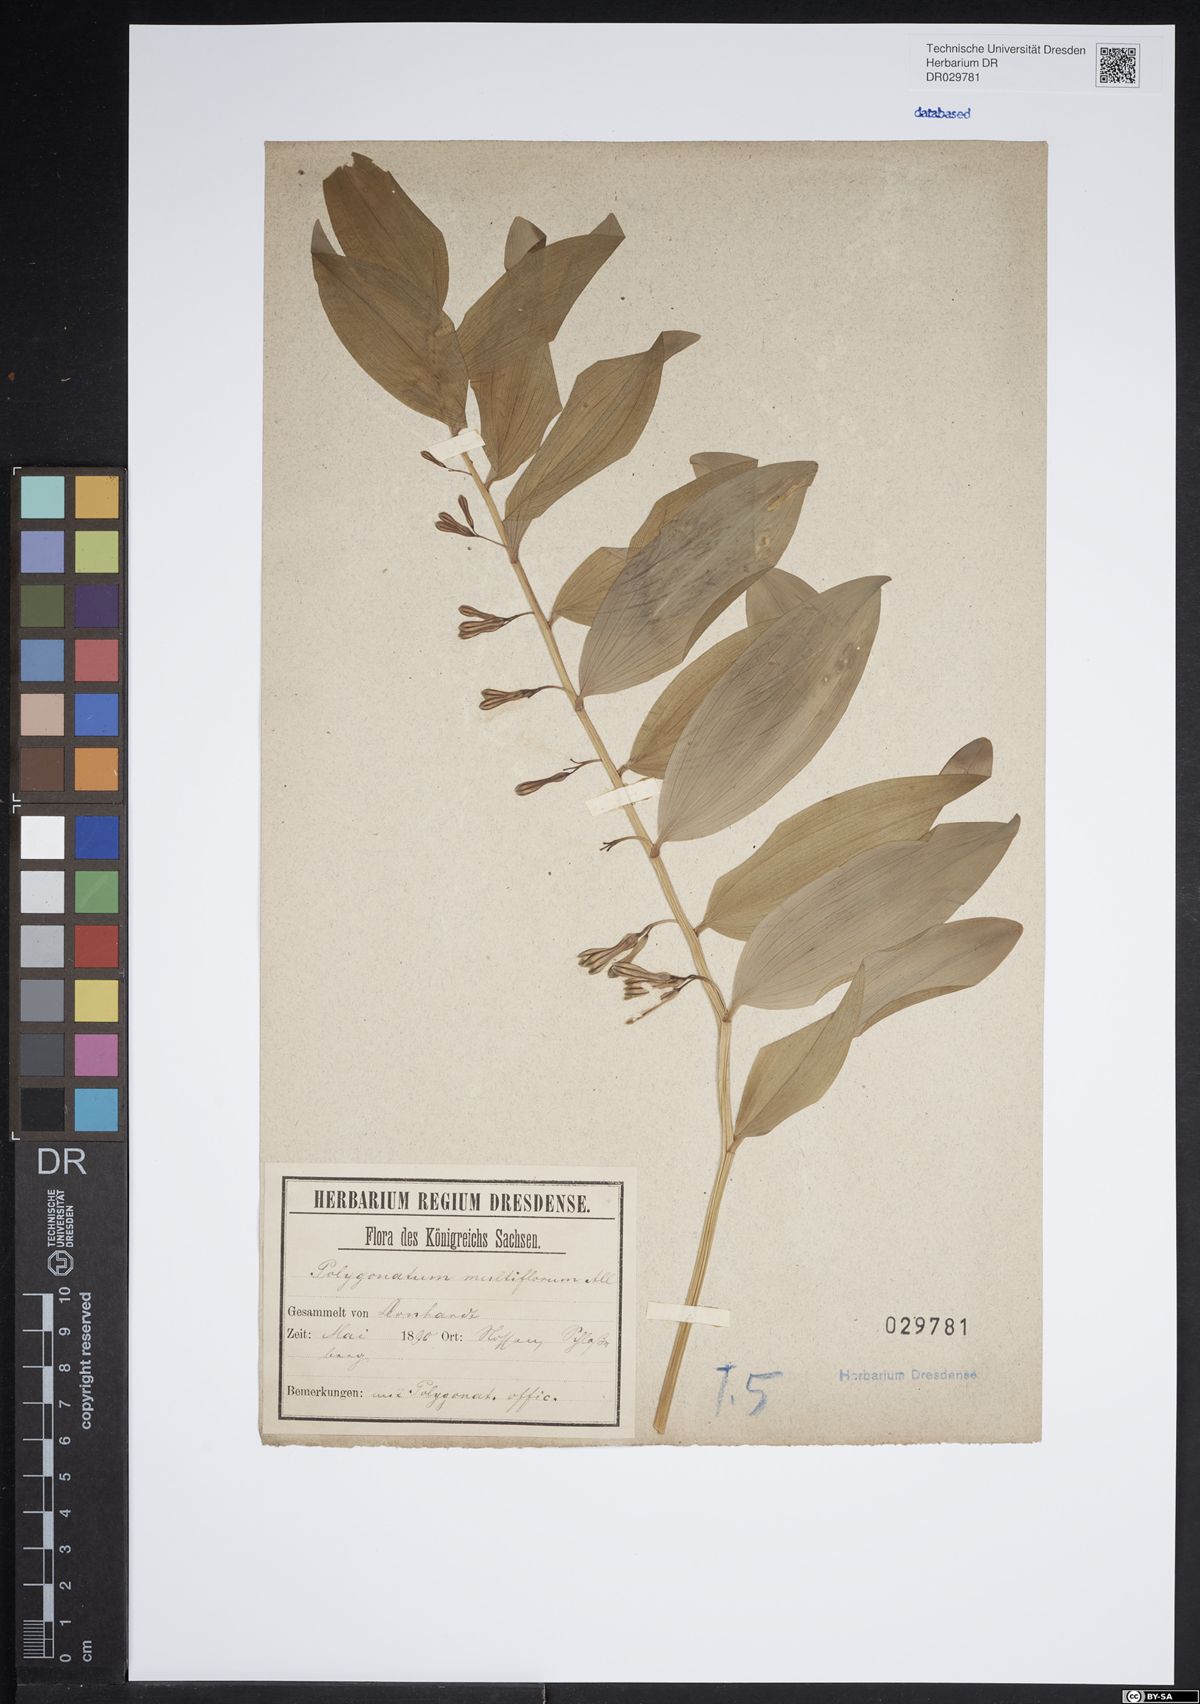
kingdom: Plantae
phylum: Tracheophyta
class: Liliopsida
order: Asparagales
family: Asparagaceae
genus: Polygonatum
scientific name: Polygonatum multiflorum
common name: Solomon's-seal
